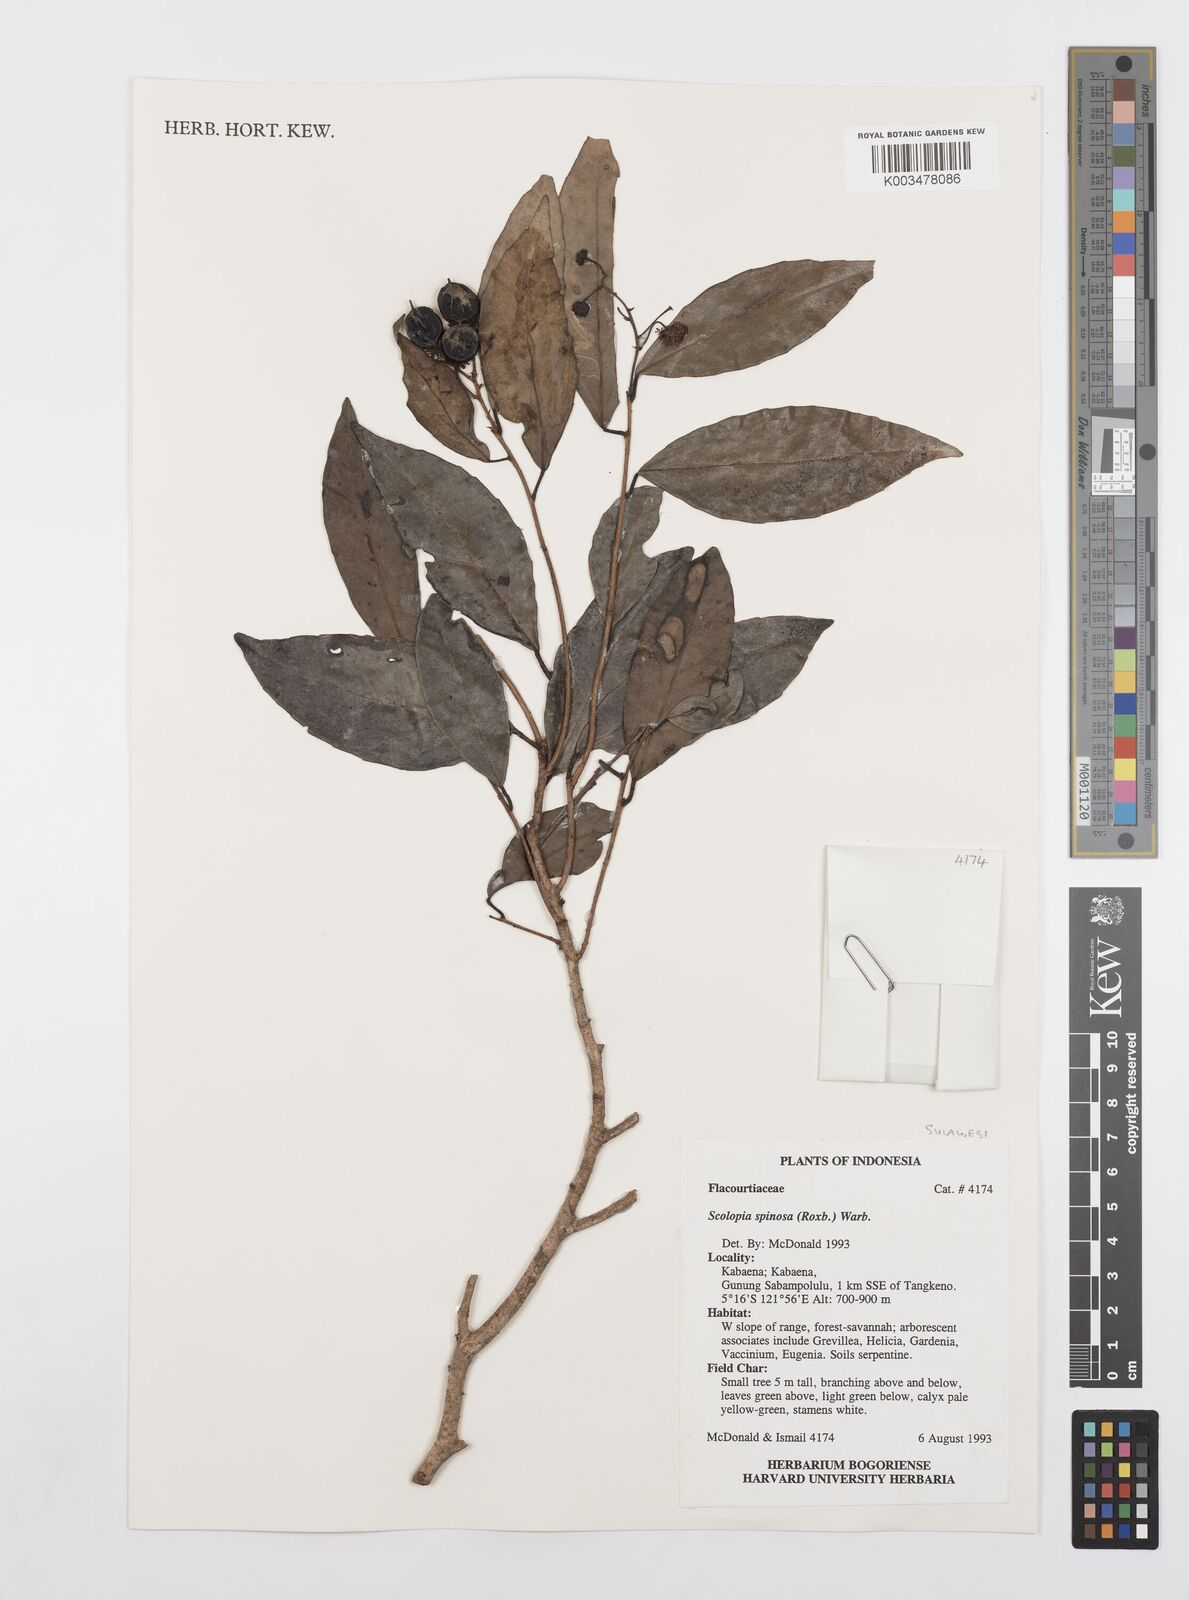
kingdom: Plantae
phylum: Tracheophyta
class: Magnoliopsida
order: Malpighiales
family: Salicaceae
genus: Scolopia
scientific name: Scolopia spinosa
